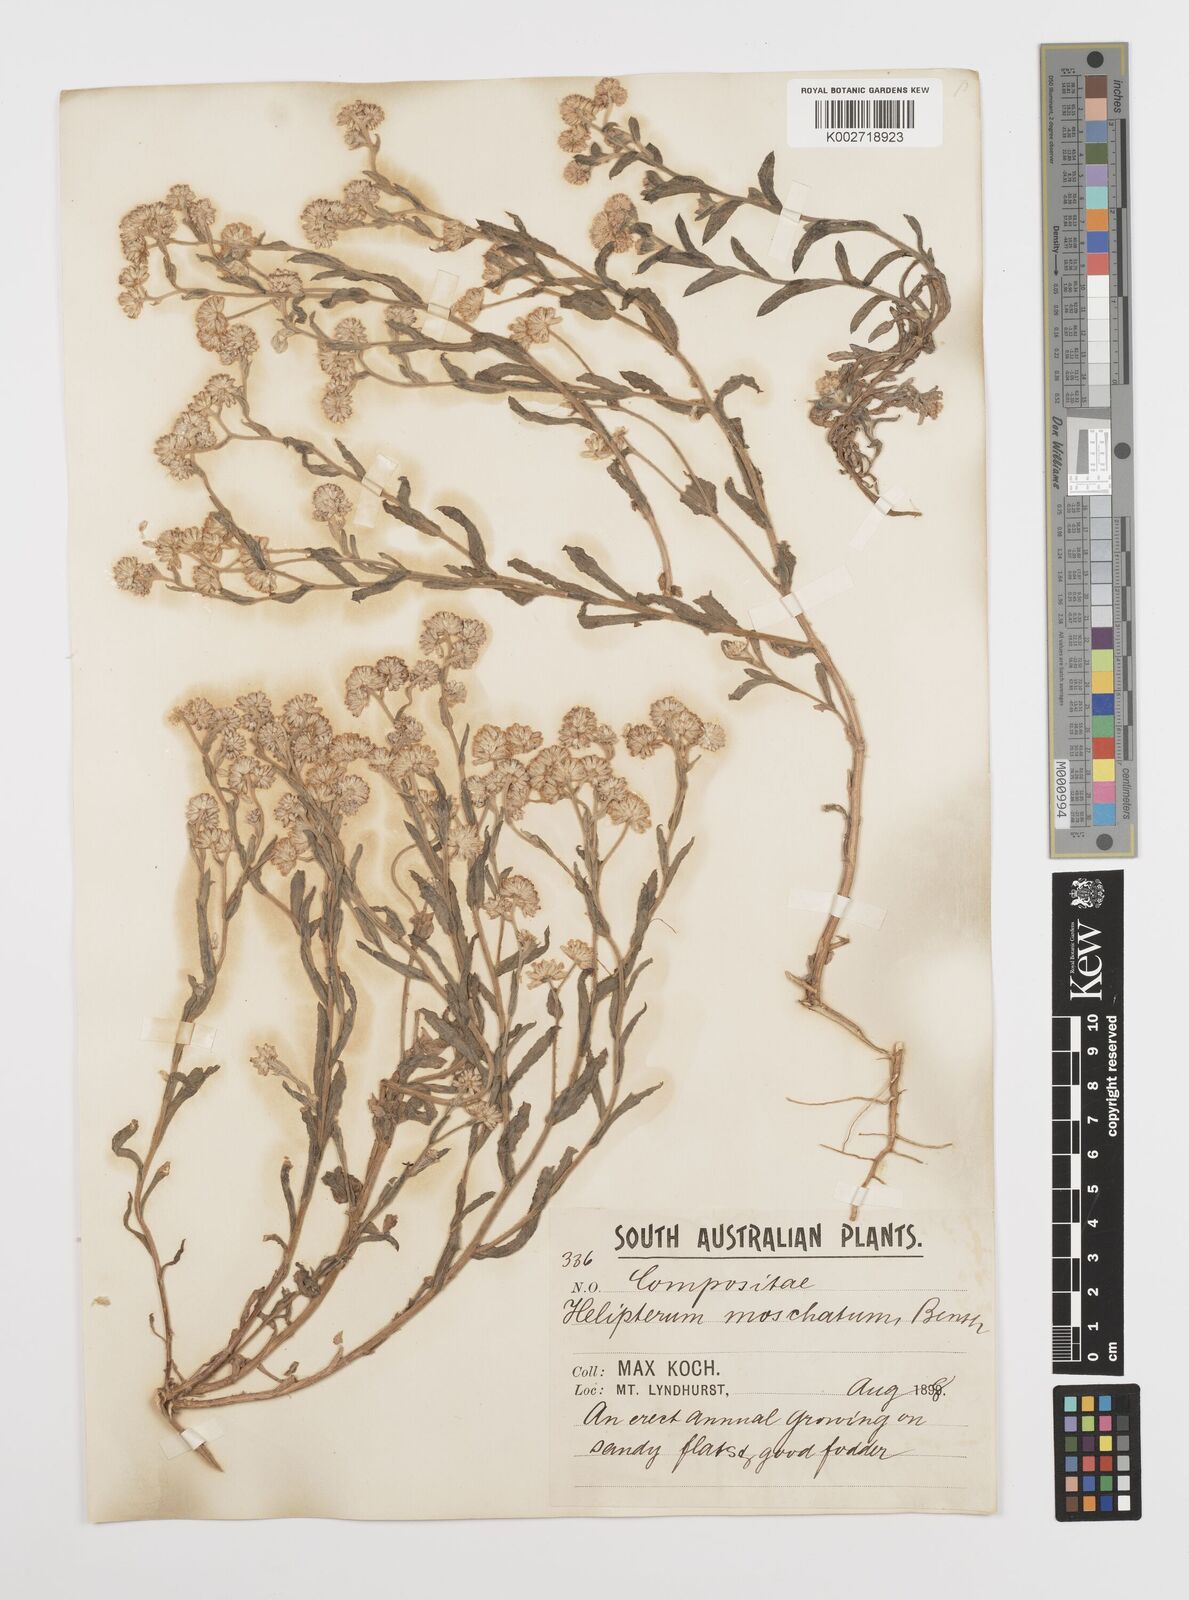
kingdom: Plantae
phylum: Tracheophyta
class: Magnoliopsida
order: Asterales
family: Asteraceae
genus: Rhodanthe
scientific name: Rhodanthe moschata
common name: Musk sunray
